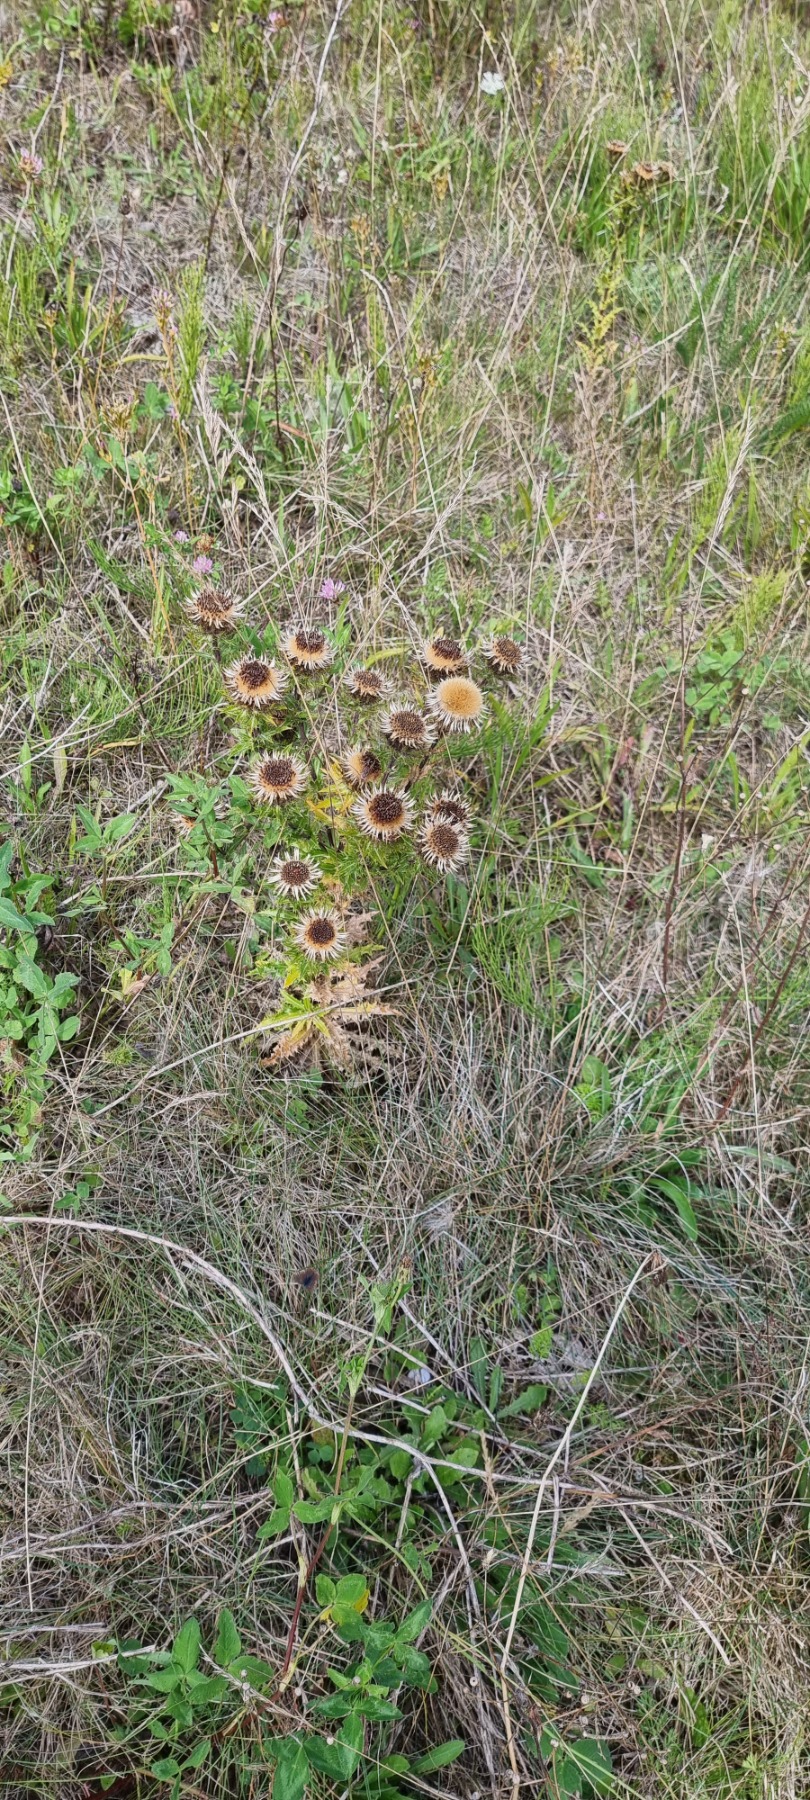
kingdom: Plantae
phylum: Tracheophyta
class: Magnoliopsida
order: Asterales
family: Asteraceae
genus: Carlina
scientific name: Carlina vulgaris
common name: Bakketidsel
